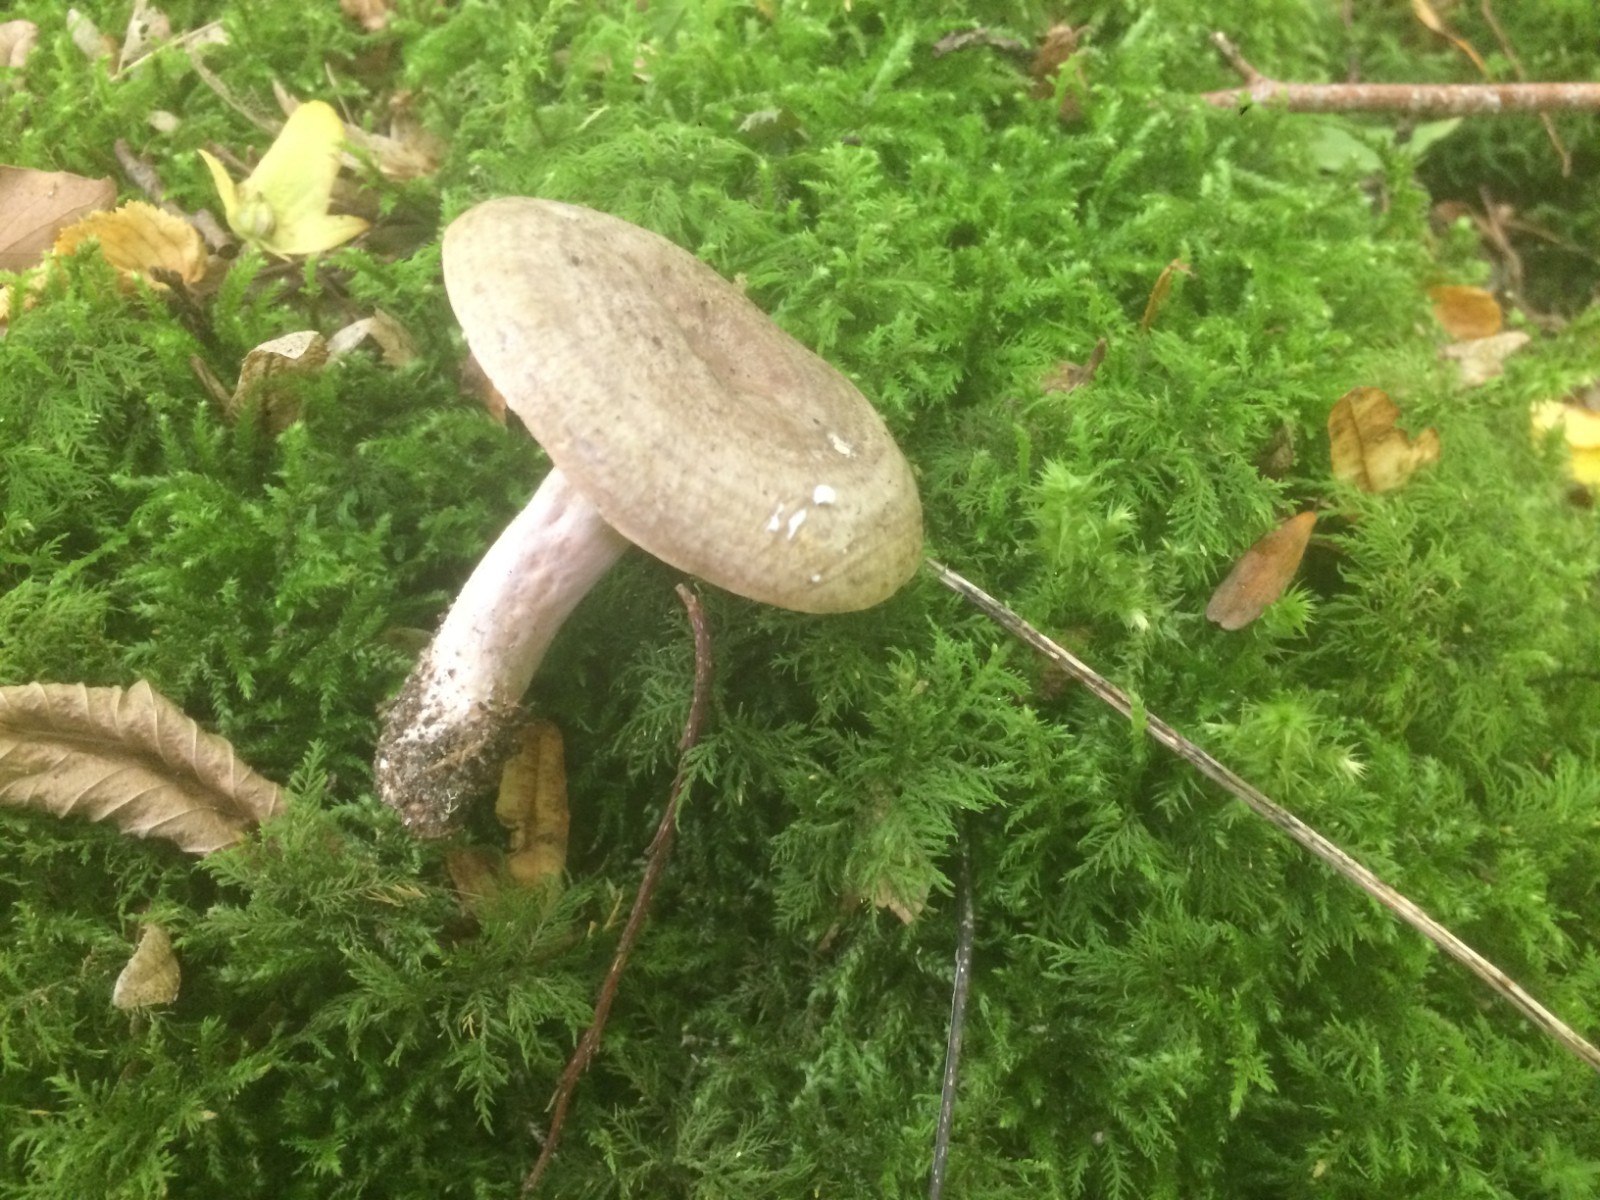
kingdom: Fungi
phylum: Basidiomycota
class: Agaricomycetes
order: Russulales
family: Russulaceae
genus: Lactarius
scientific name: Lactarius circellatus
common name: avnbøg-mælkehat
